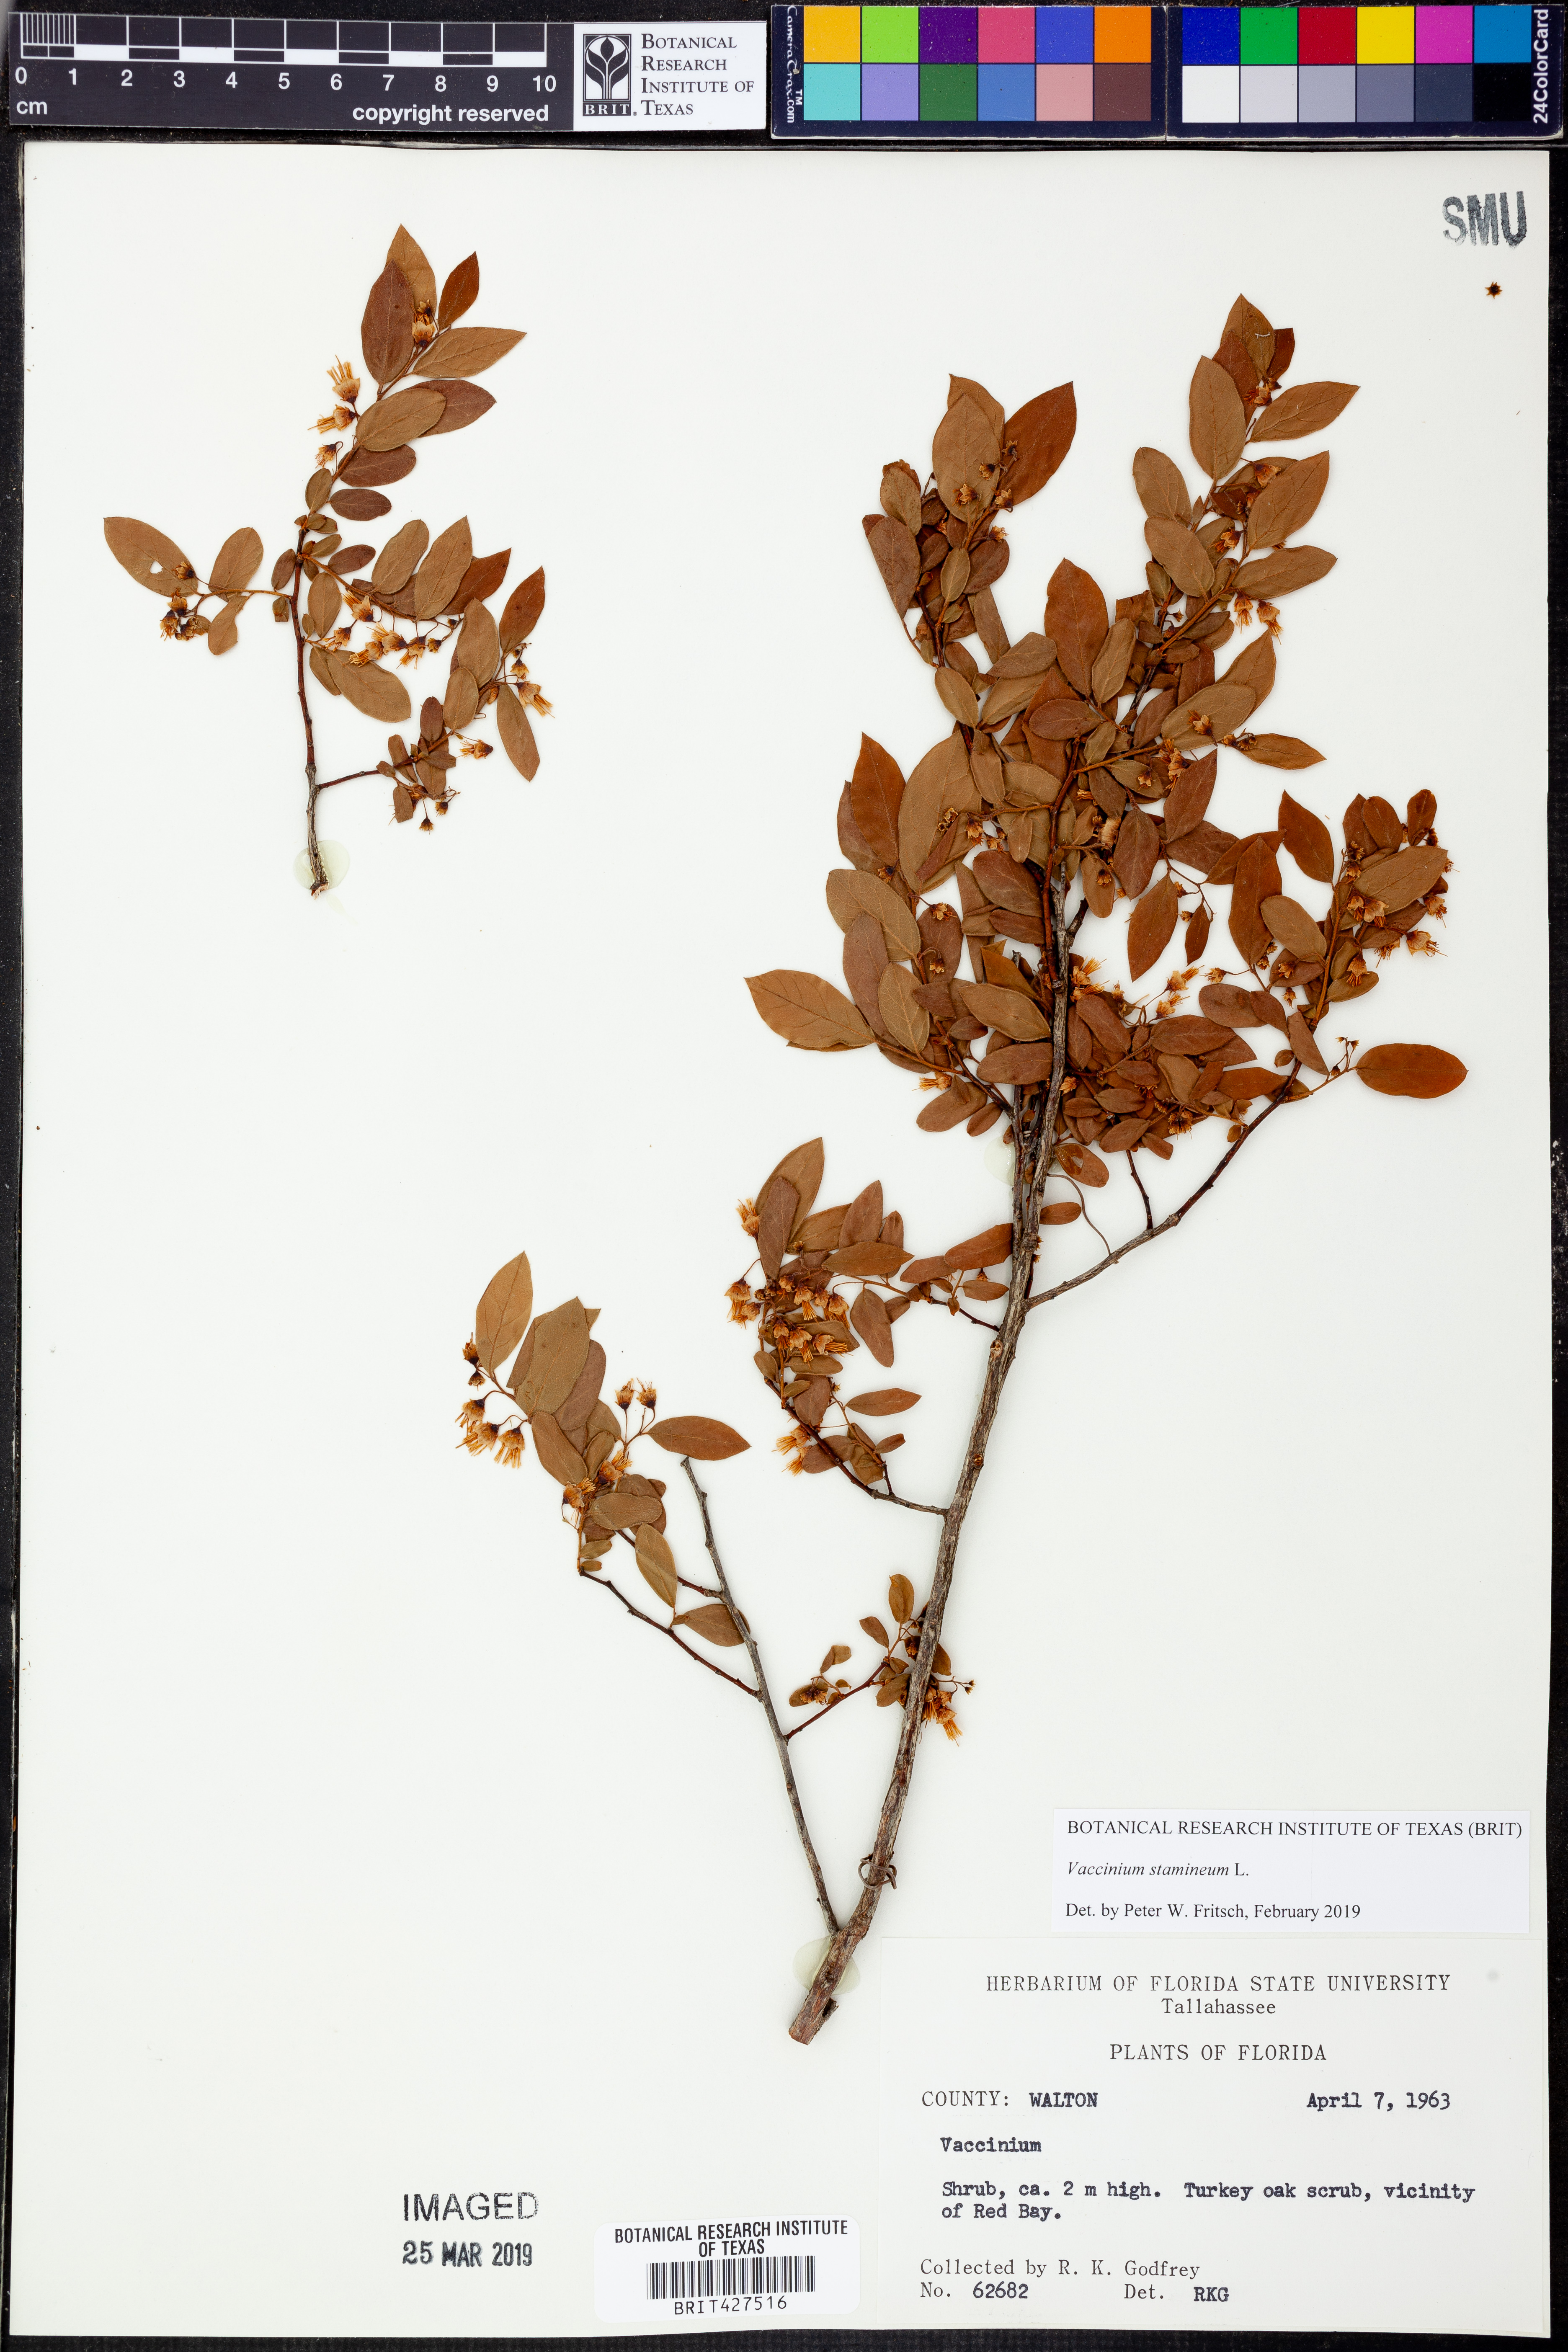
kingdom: Plantae
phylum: Tracheophyta
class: Magnoliopsida
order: Ericales
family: Ericaceae
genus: Vaccinium
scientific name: Vaccinium stamineum
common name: Deerberry
